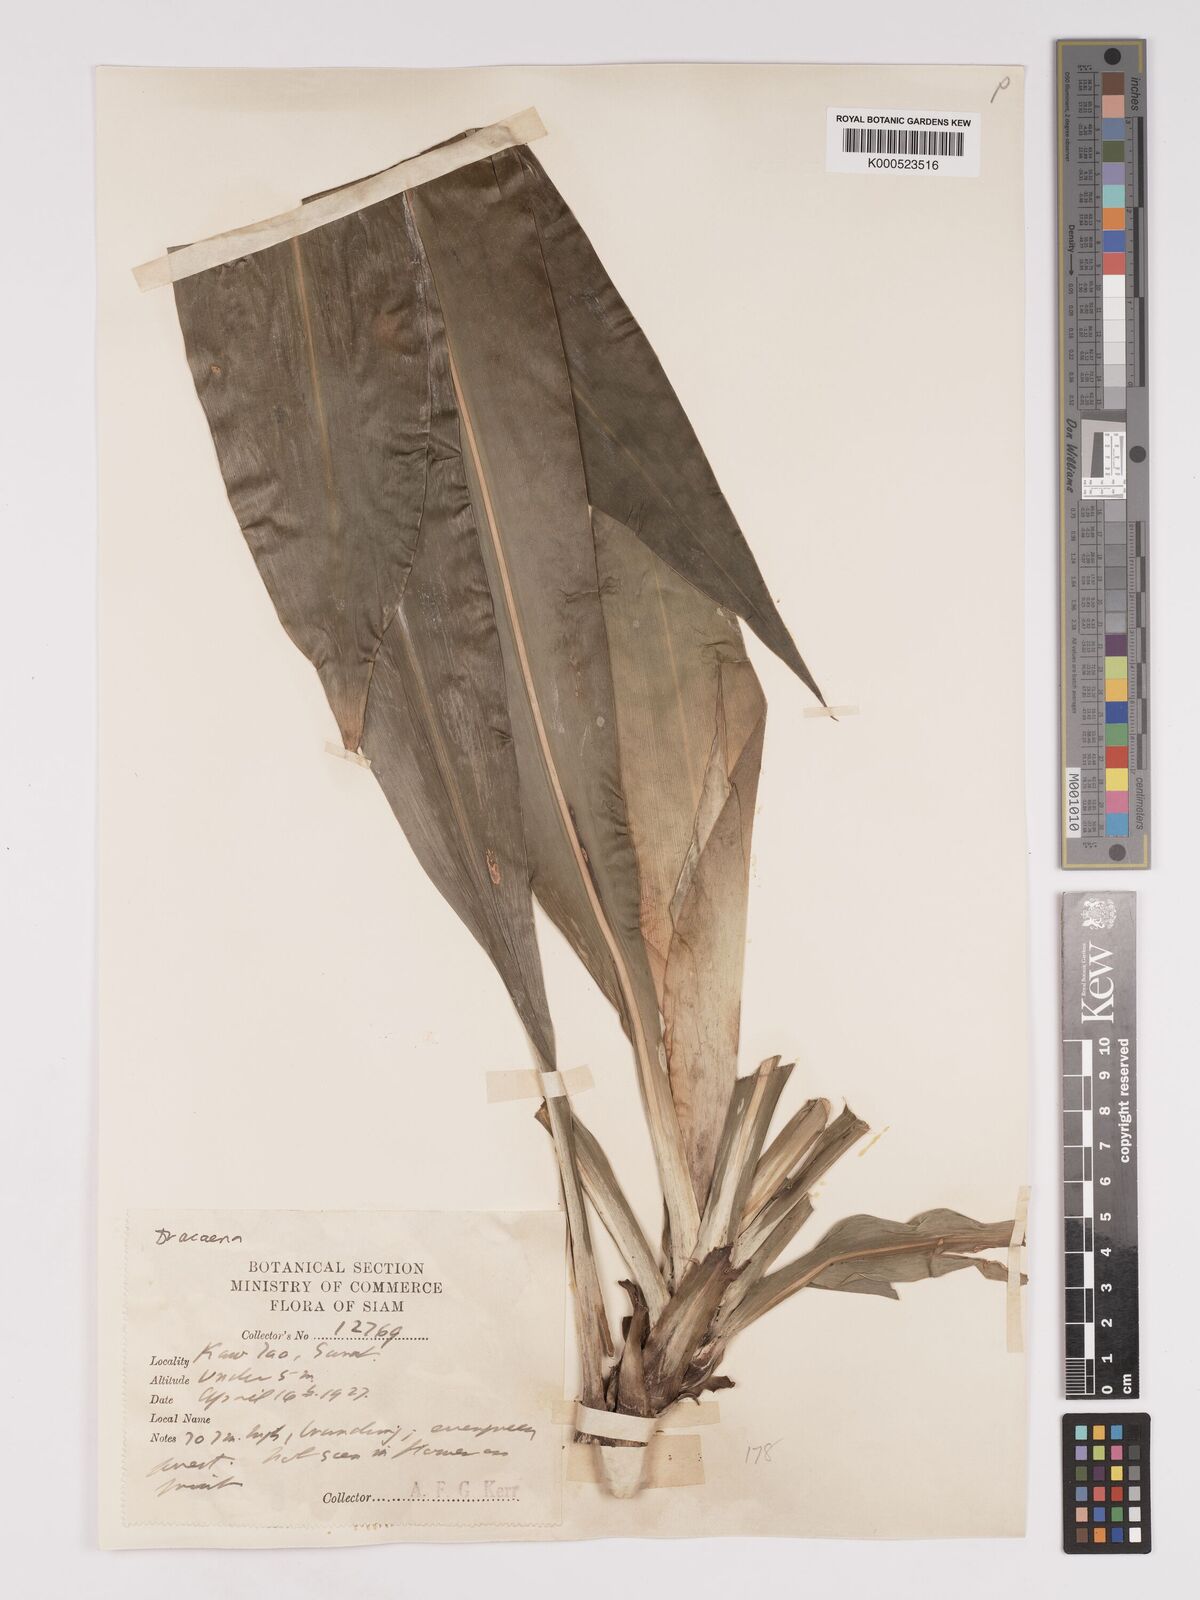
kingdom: Plantae
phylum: Tracheophyta
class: Liliopsida
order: Asparagales
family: Asparagaceae
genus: Dracaena
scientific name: Dracaena
